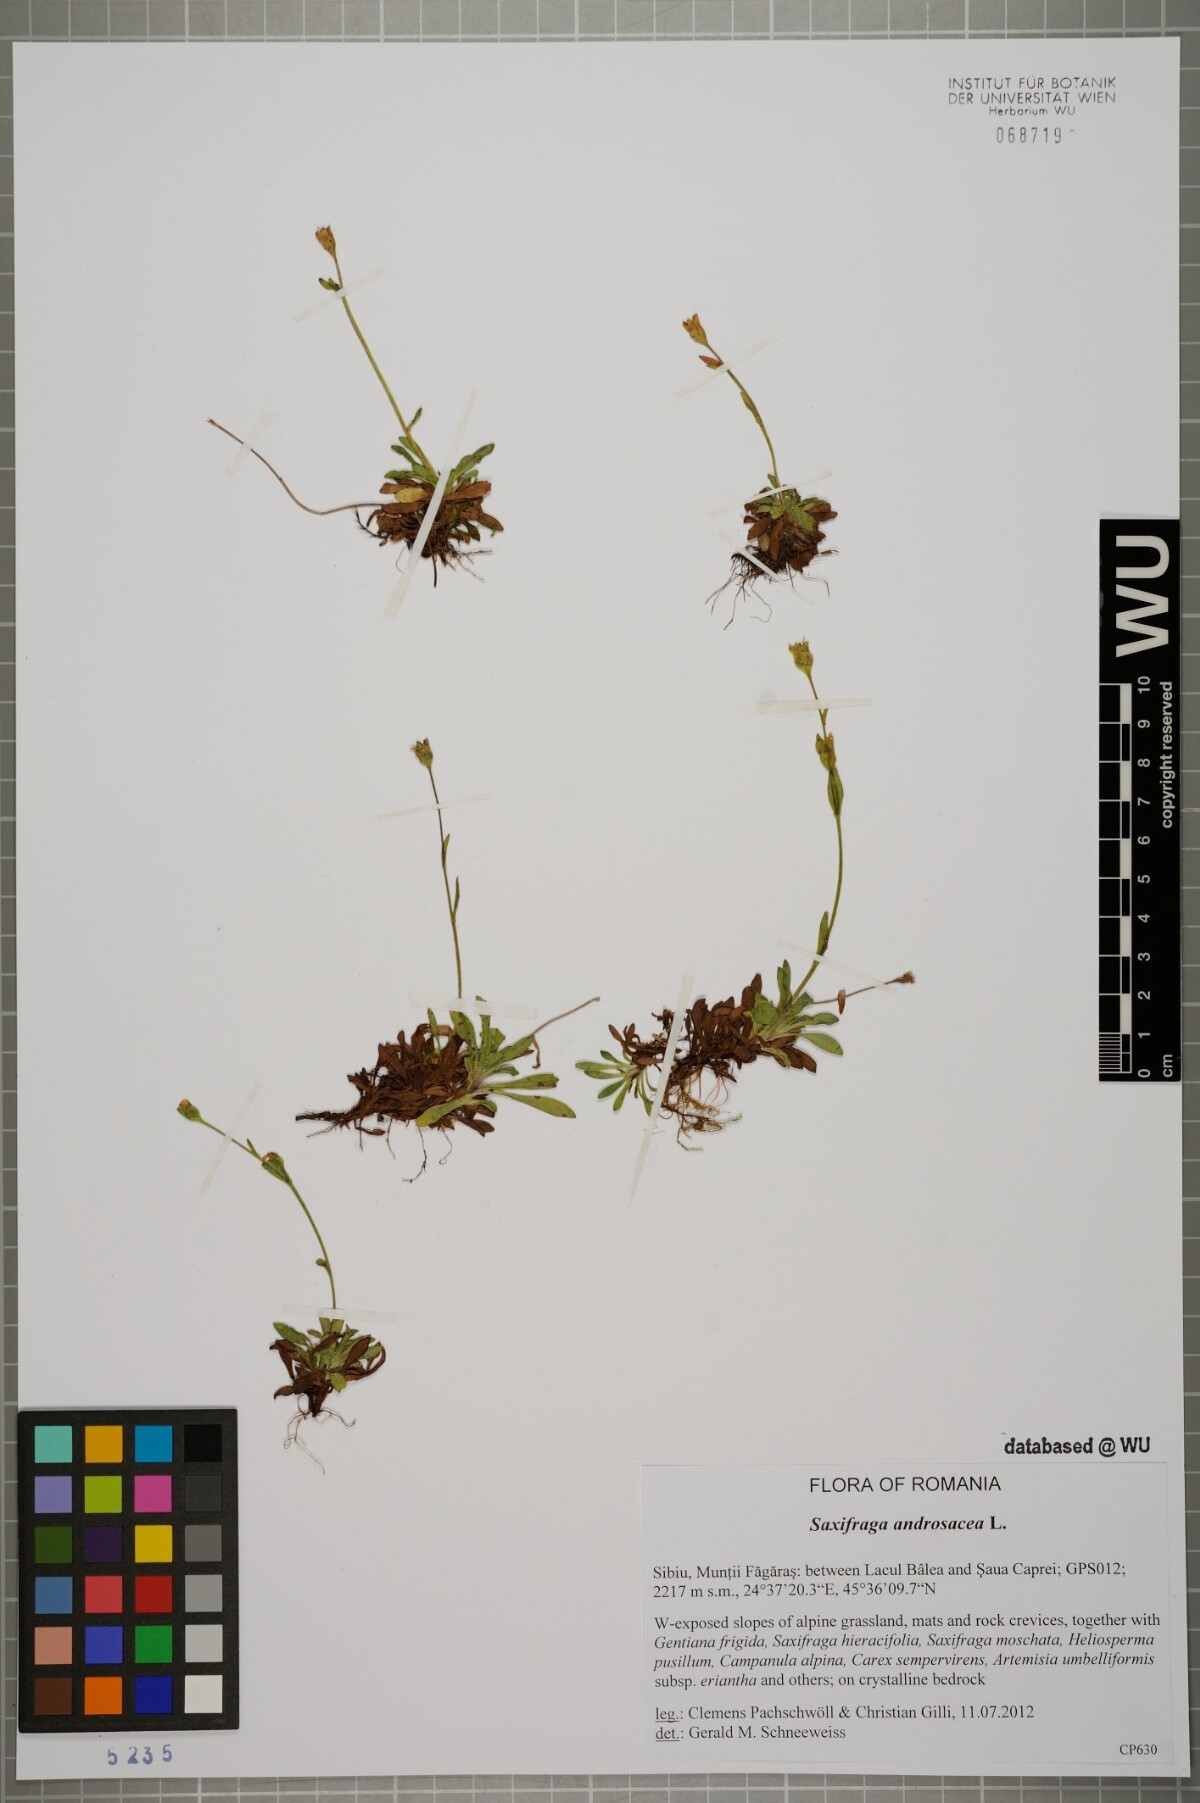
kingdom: Plantae
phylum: Tracheophyta
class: Magnoliopsida
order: Saxifragales
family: Saxifragaceae
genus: Saxifraga
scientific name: Saxifraga androsacea
